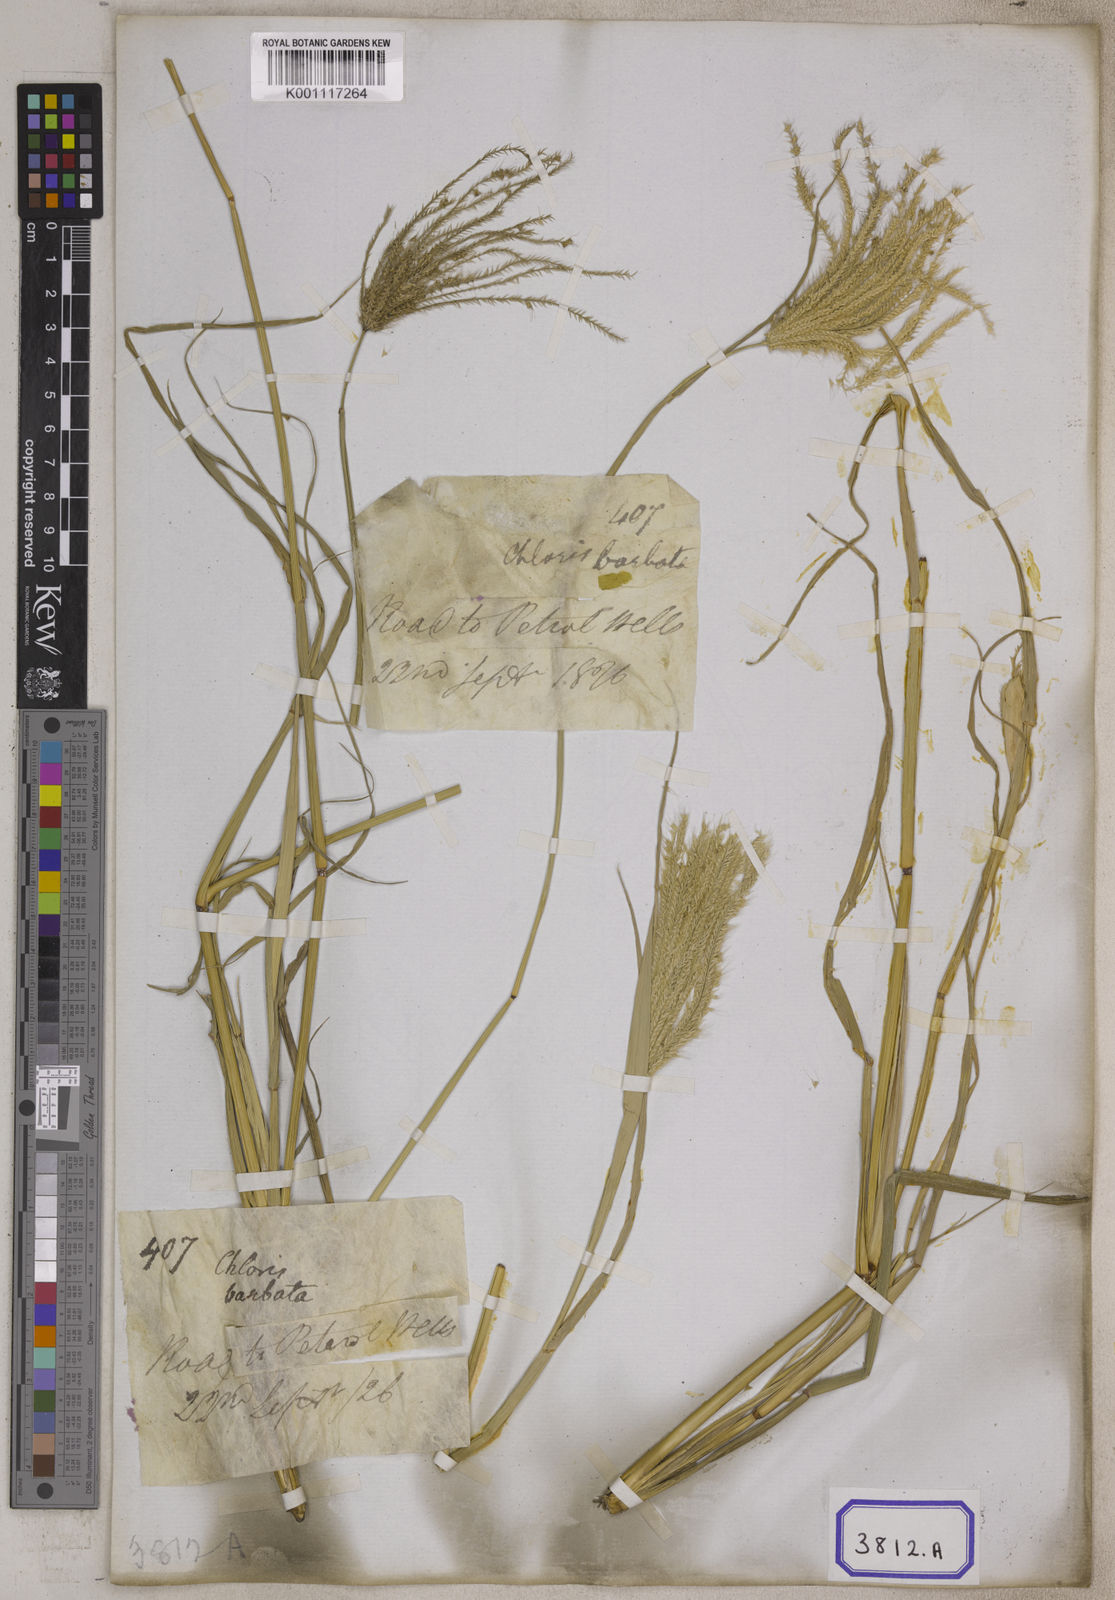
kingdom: Plantae
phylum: Tracheophyta
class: Liliopsida
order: Poales
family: Poaceae
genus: Chloris
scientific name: Chloris
